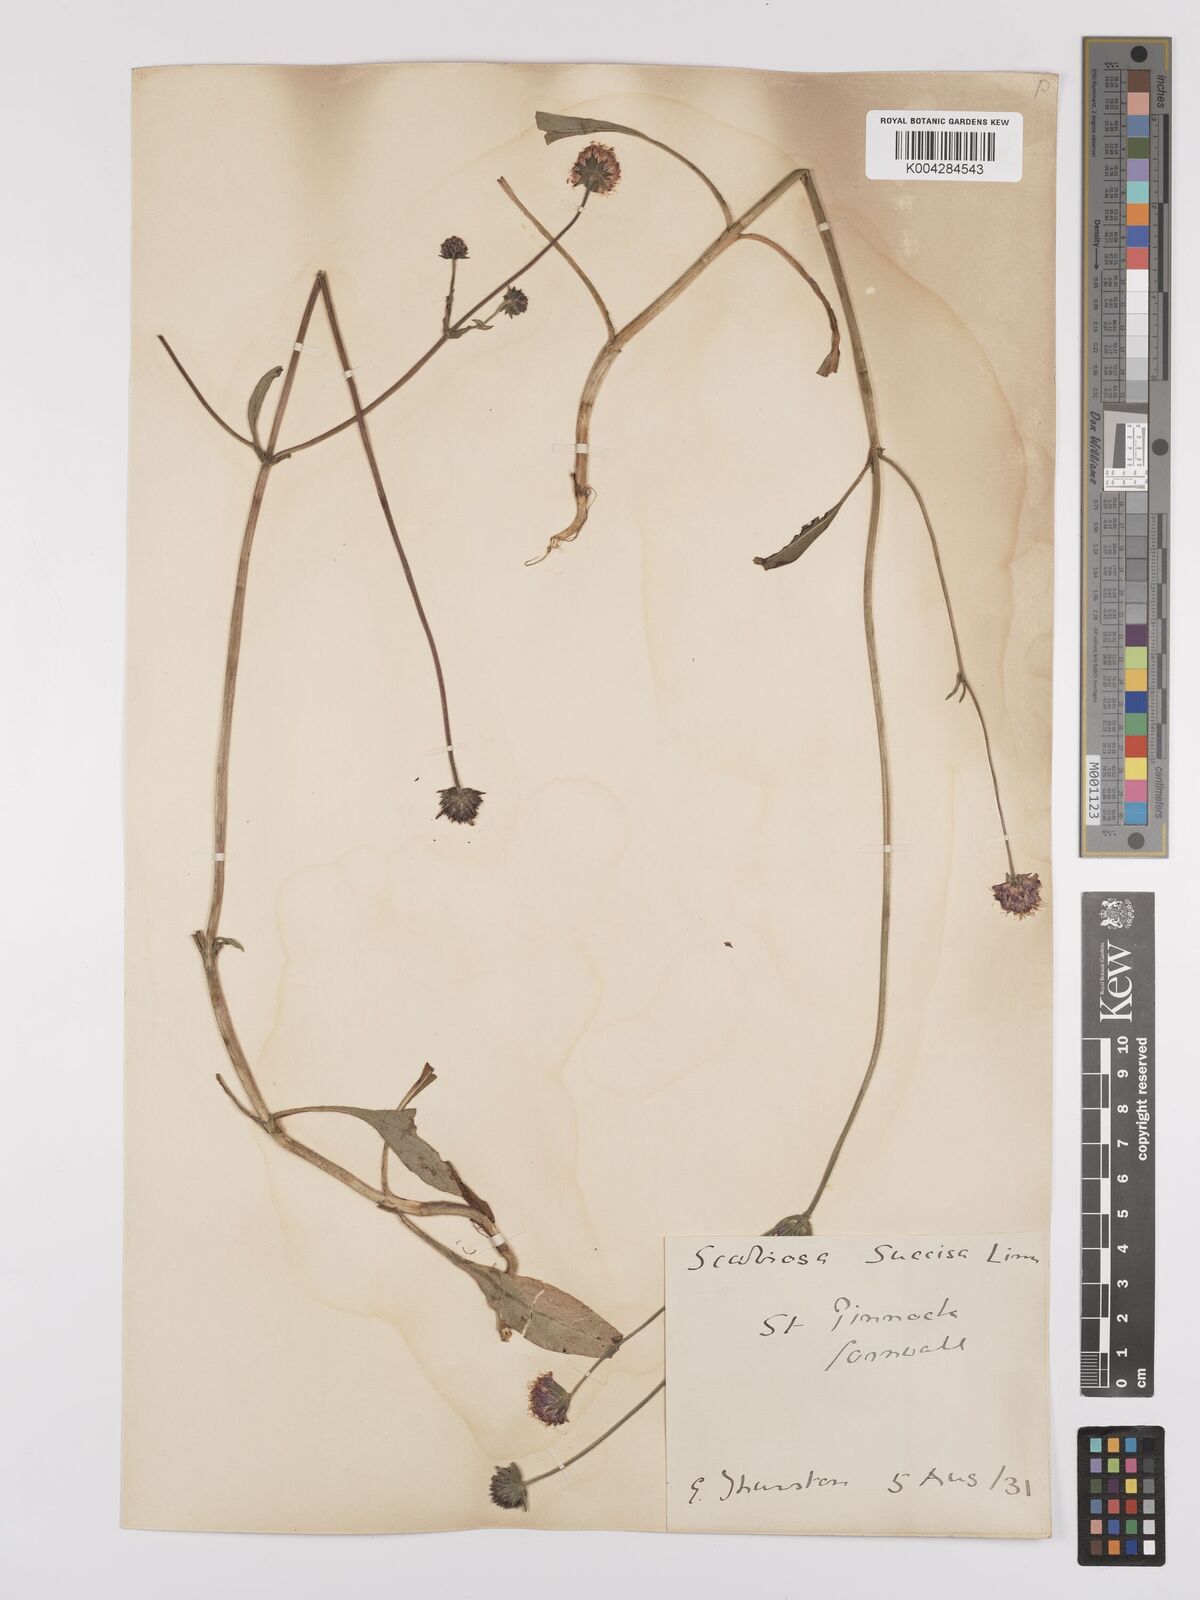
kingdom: Plantae
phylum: Tracheophyta
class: Magnoliopsida
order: Dipsacales
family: Caprifoliaceae
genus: Succisa
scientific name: Succisa pratensis
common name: Devil's-bit
